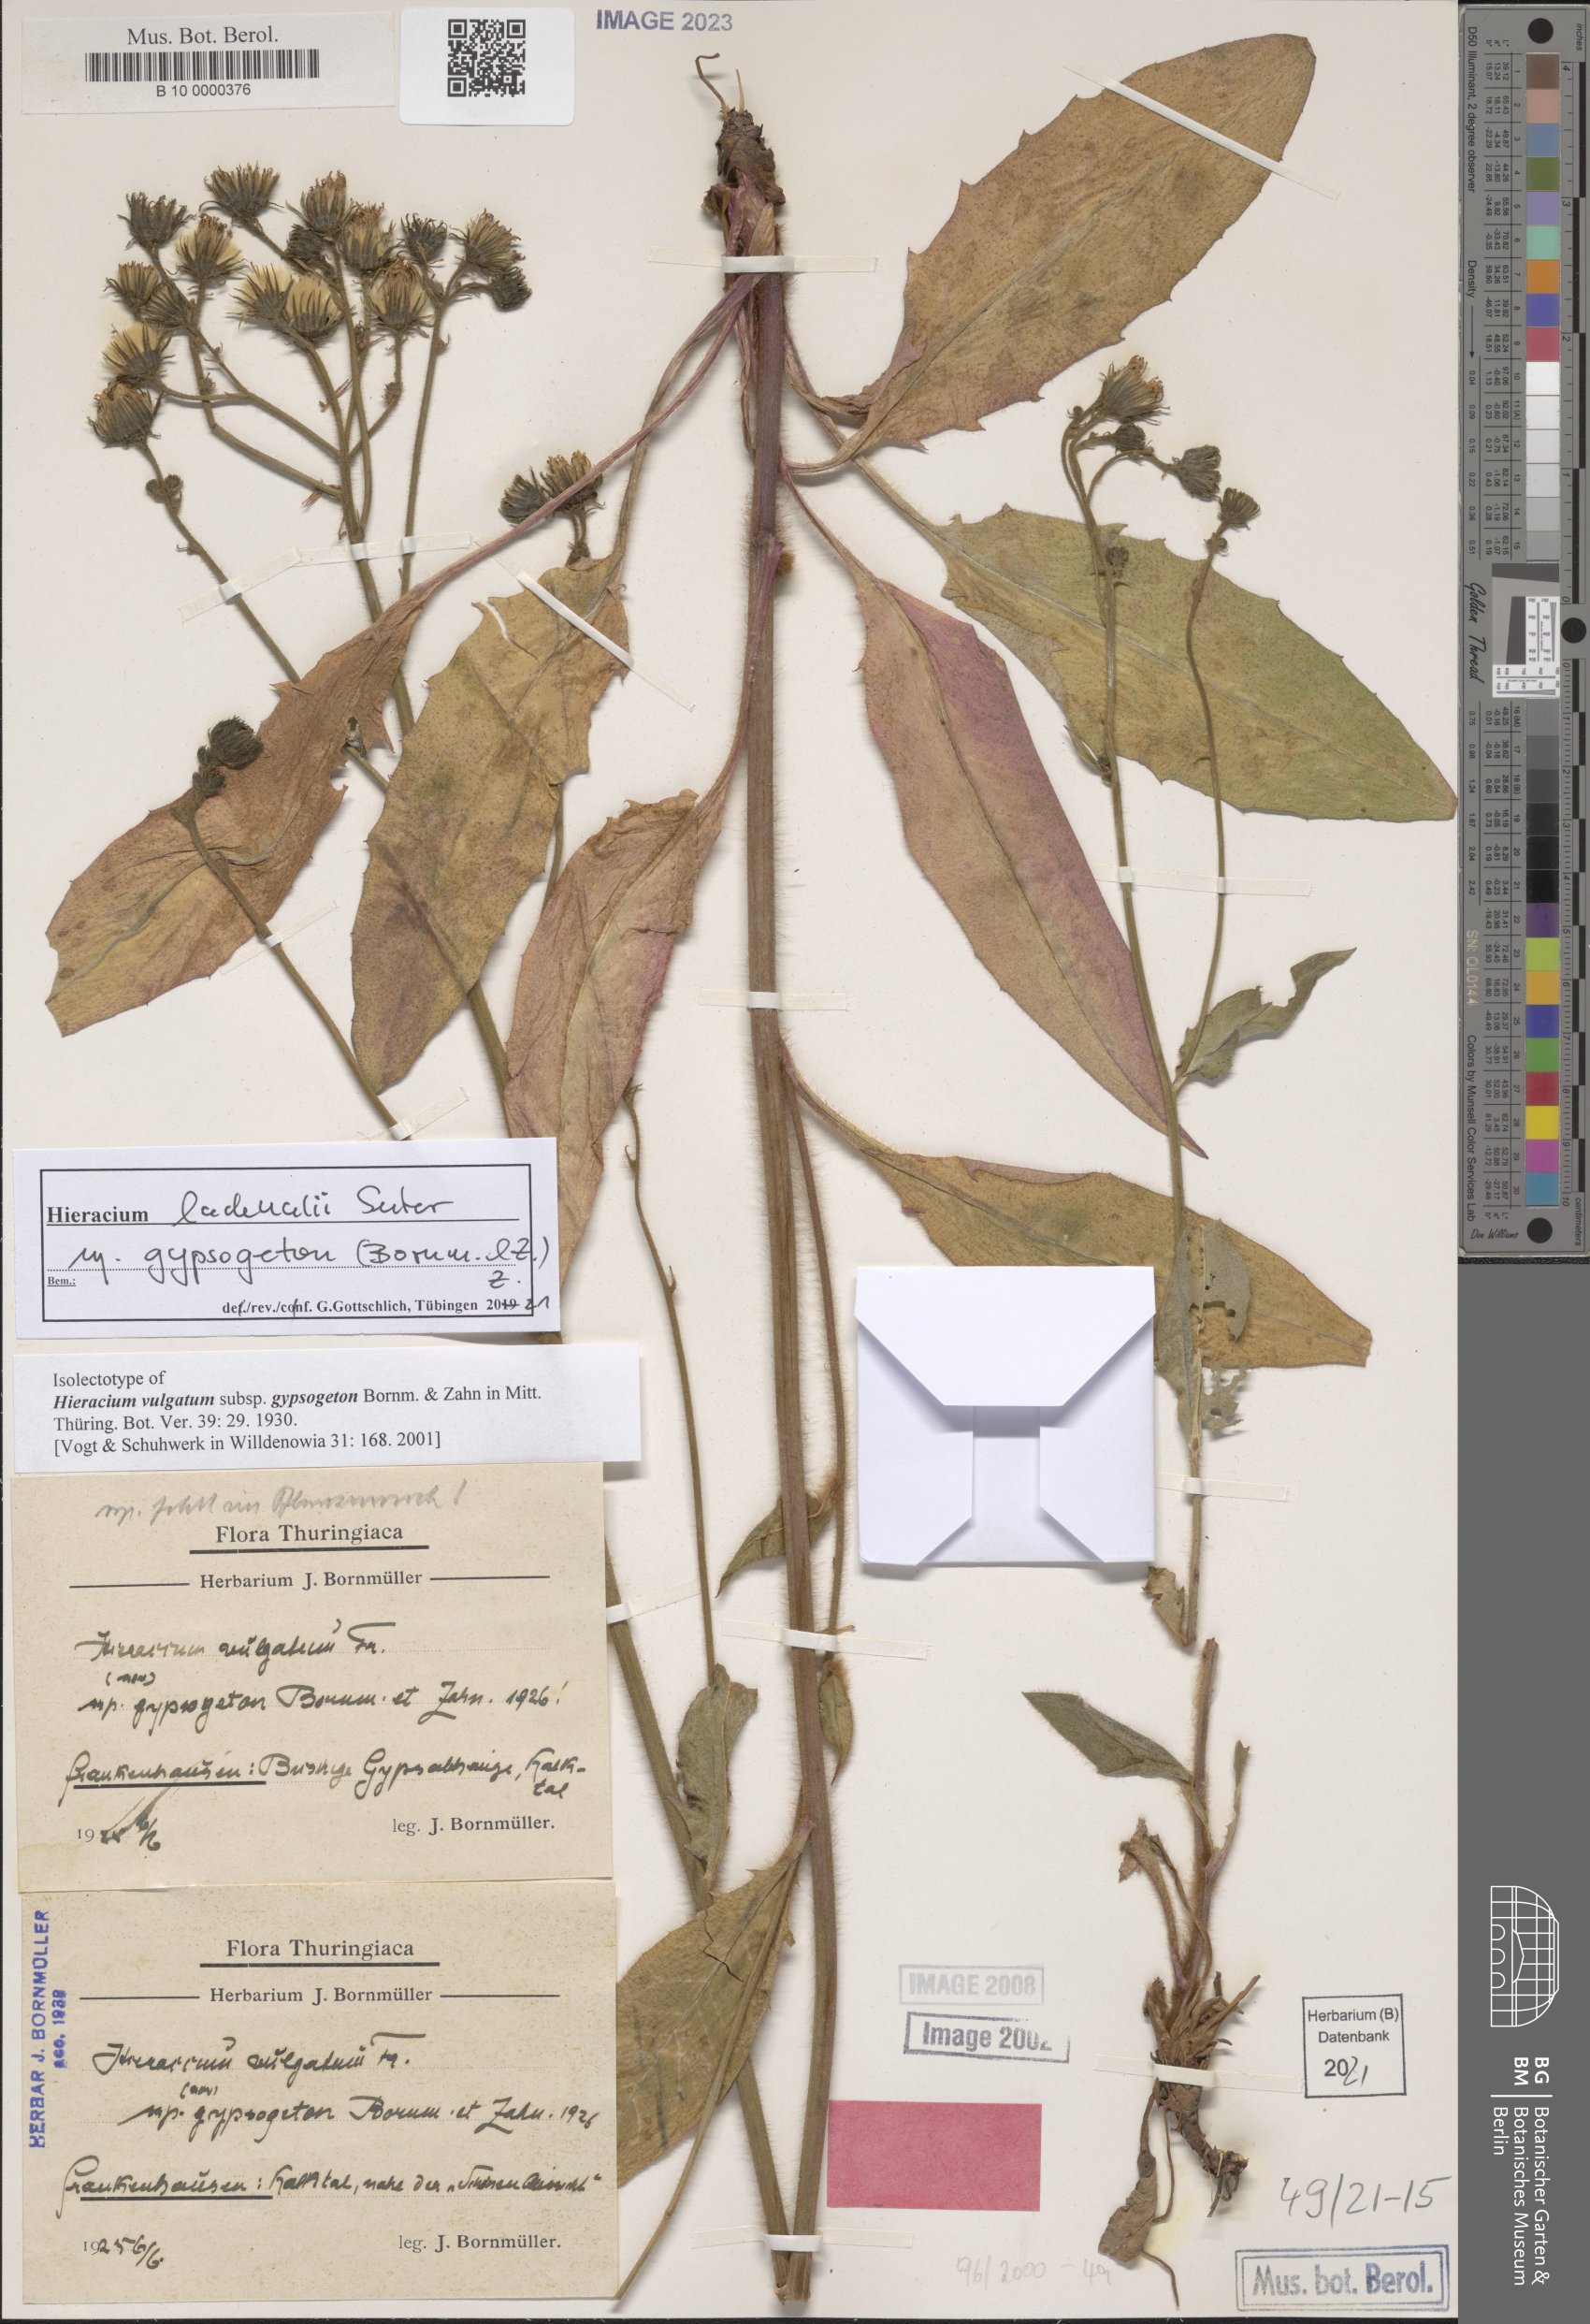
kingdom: Plantae
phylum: Tracheophyta
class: Magnoliopsida
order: Asterales
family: Asteraceae
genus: Hieracium
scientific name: Hieracium vulgatum
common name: Common hawkweed
